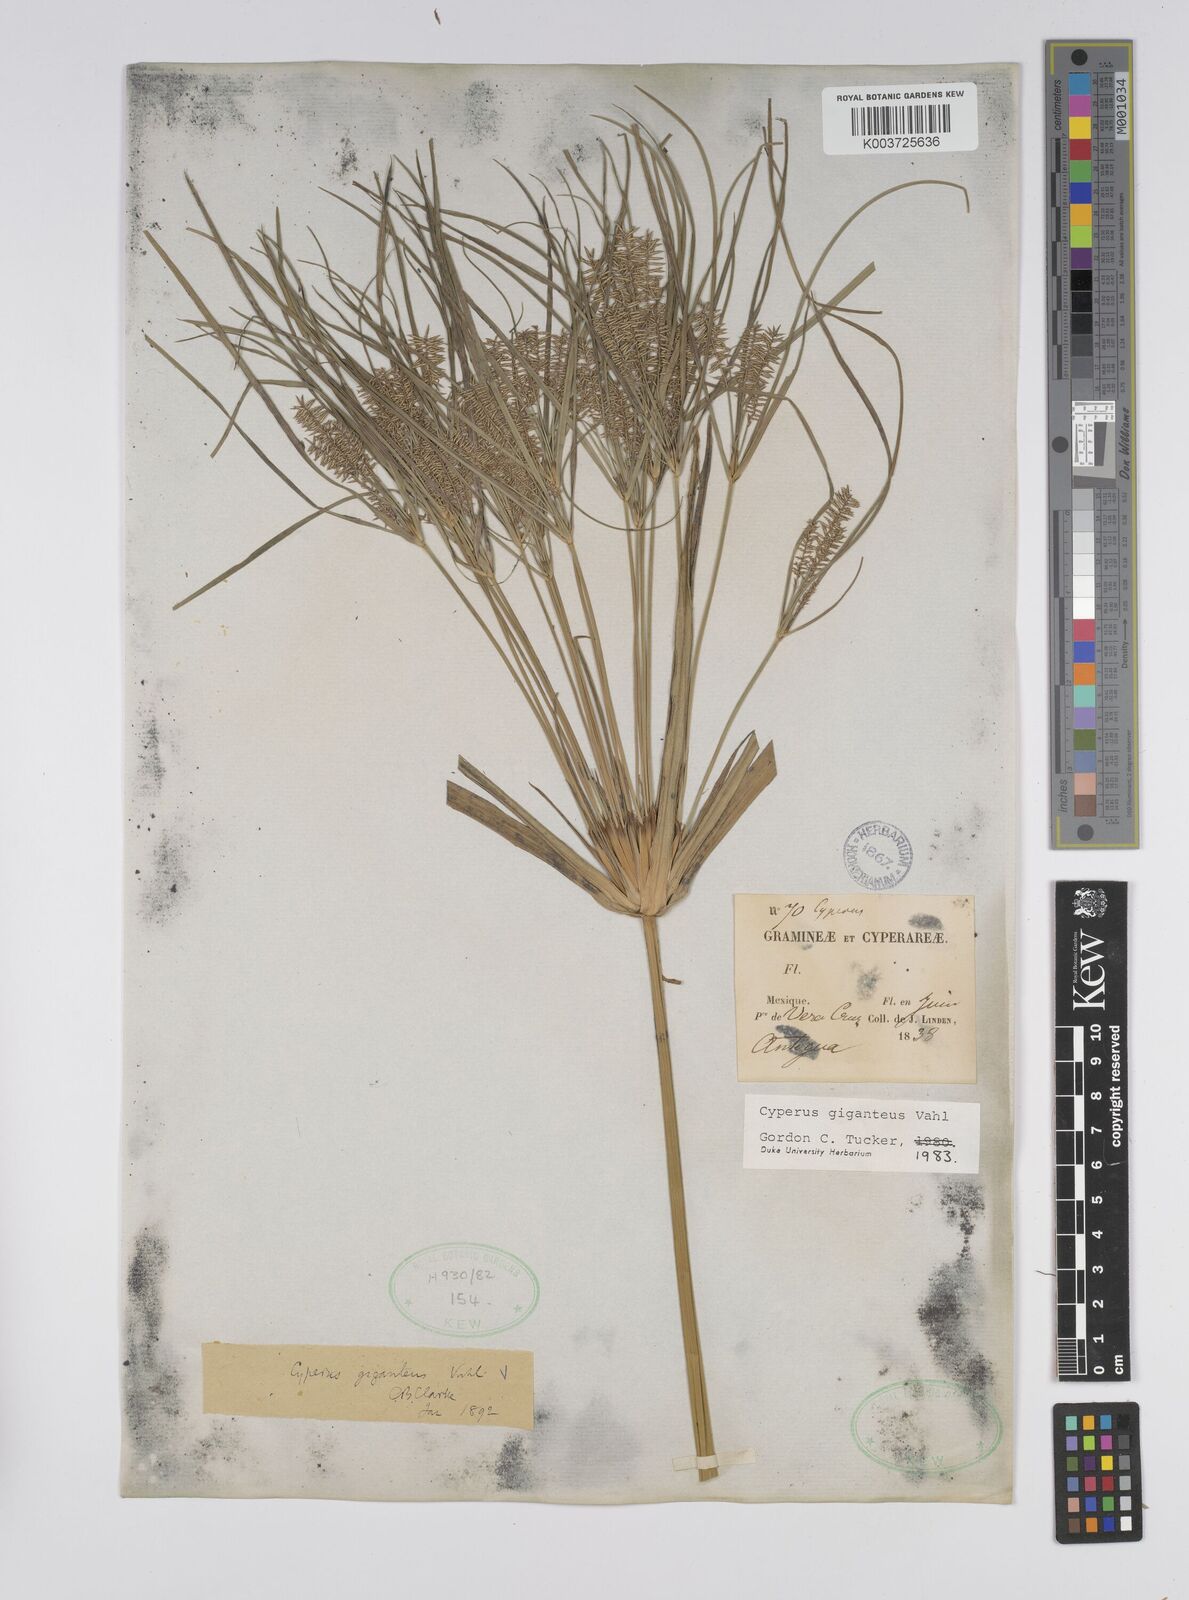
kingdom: Plantae
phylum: Tracheophyta
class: Liliopsida
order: Poales
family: Cyperaceae
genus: Cyperus
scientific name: Cyperus giganteus
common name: Giant flat sedge
